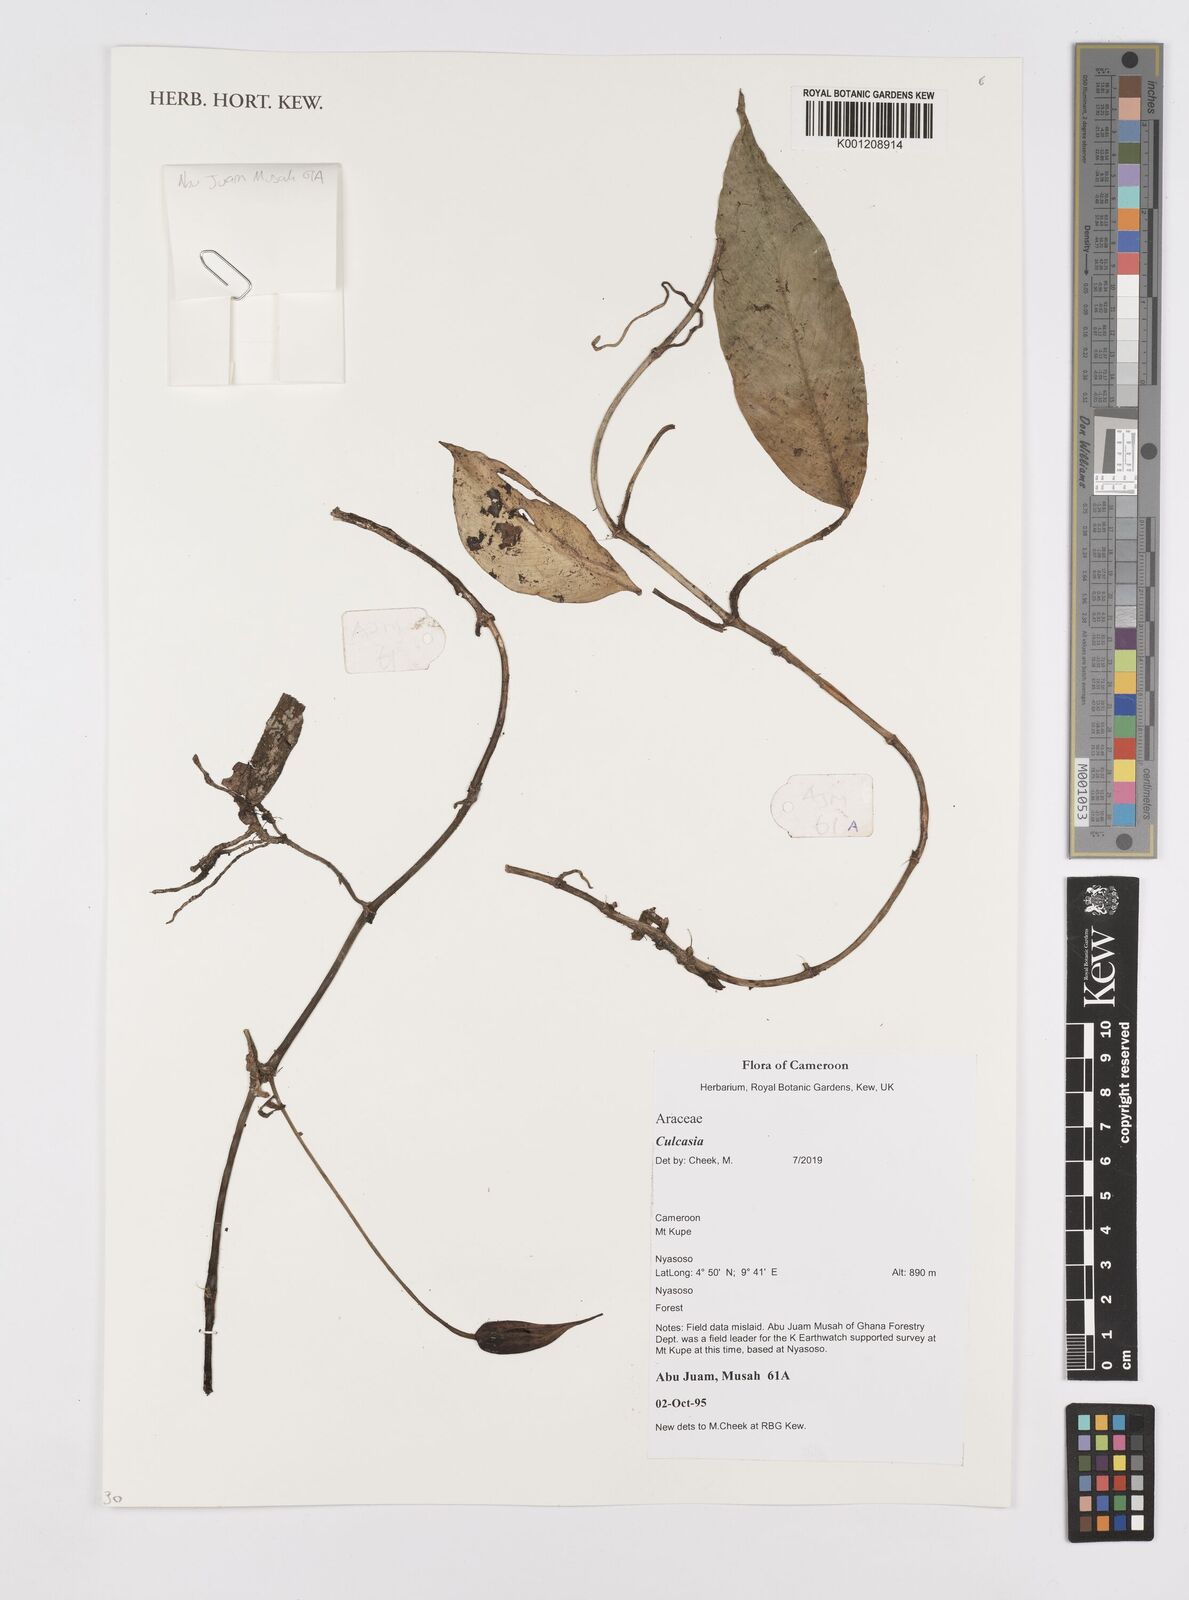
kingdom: Plantae
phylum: Tracheophyta
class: Liliopsida
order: Alismatales
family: Araceae
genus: Culcasia
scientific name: Culcasia
